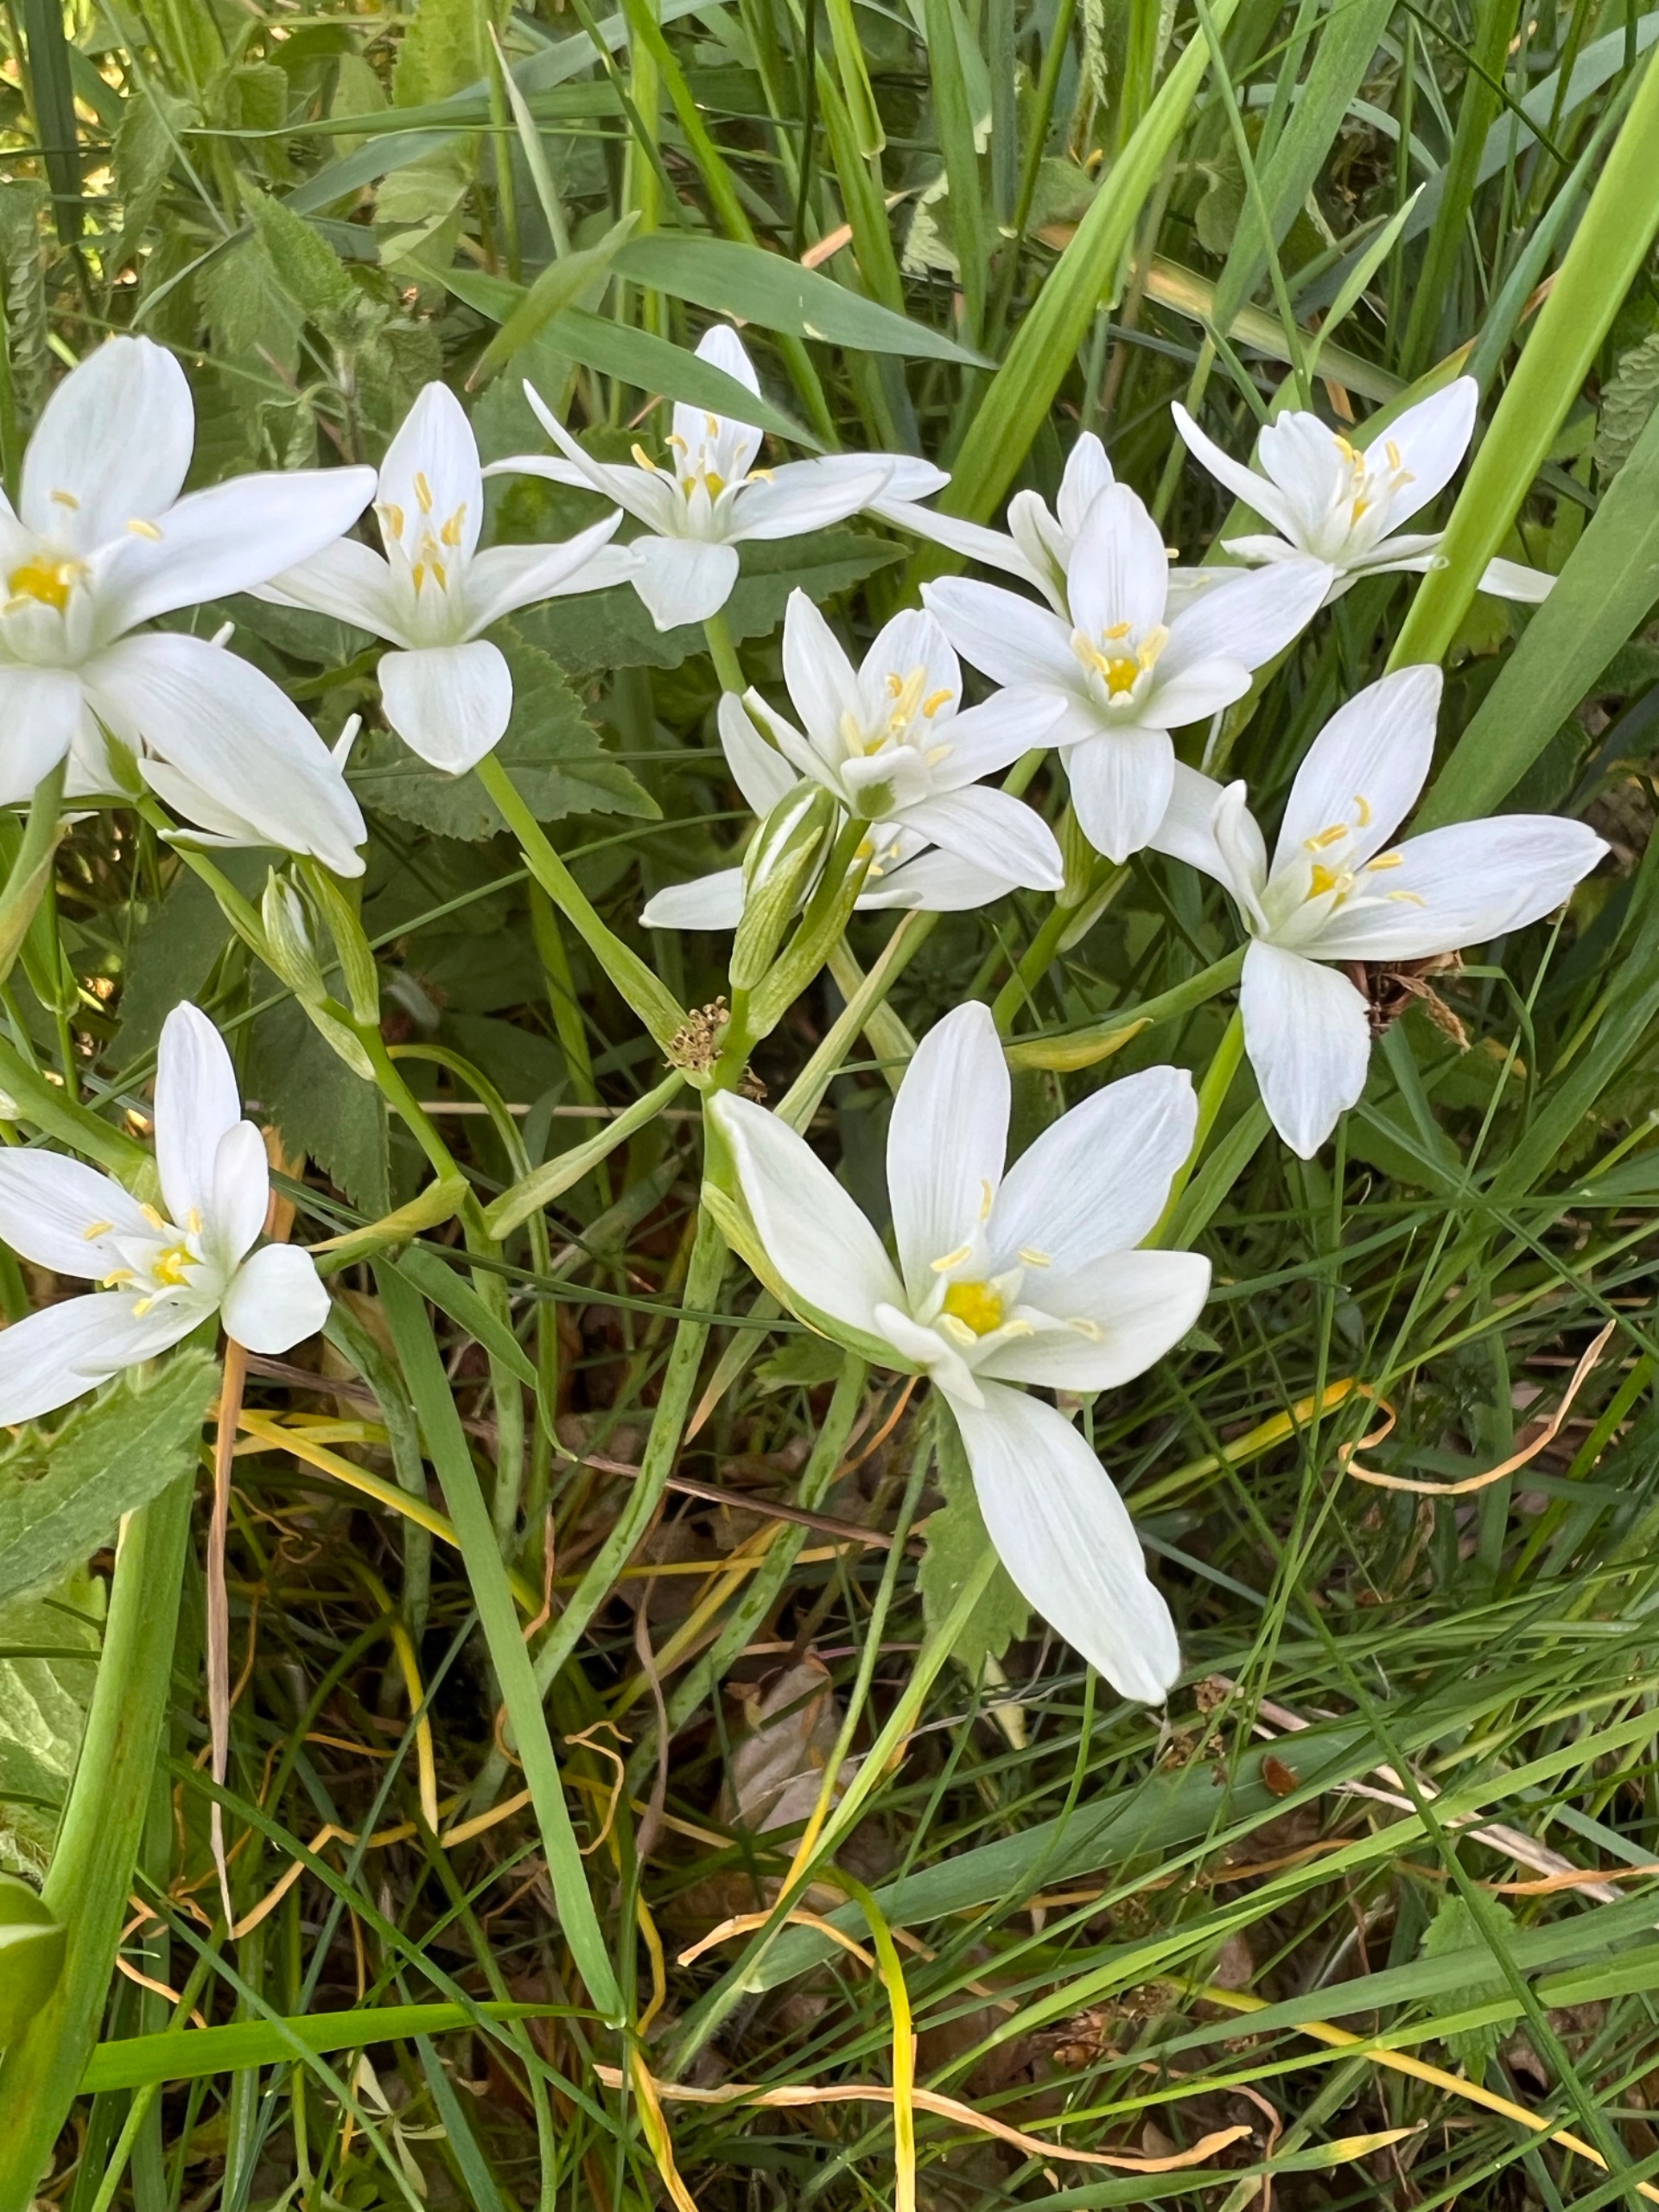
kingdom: Plantae
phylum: Tracheophyta
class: Liliopsida
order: Asparagales
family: Asparagaceae
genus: Ornithogalum
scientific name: Ornithogalum umbellatum
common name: Kost-fuglemælk
